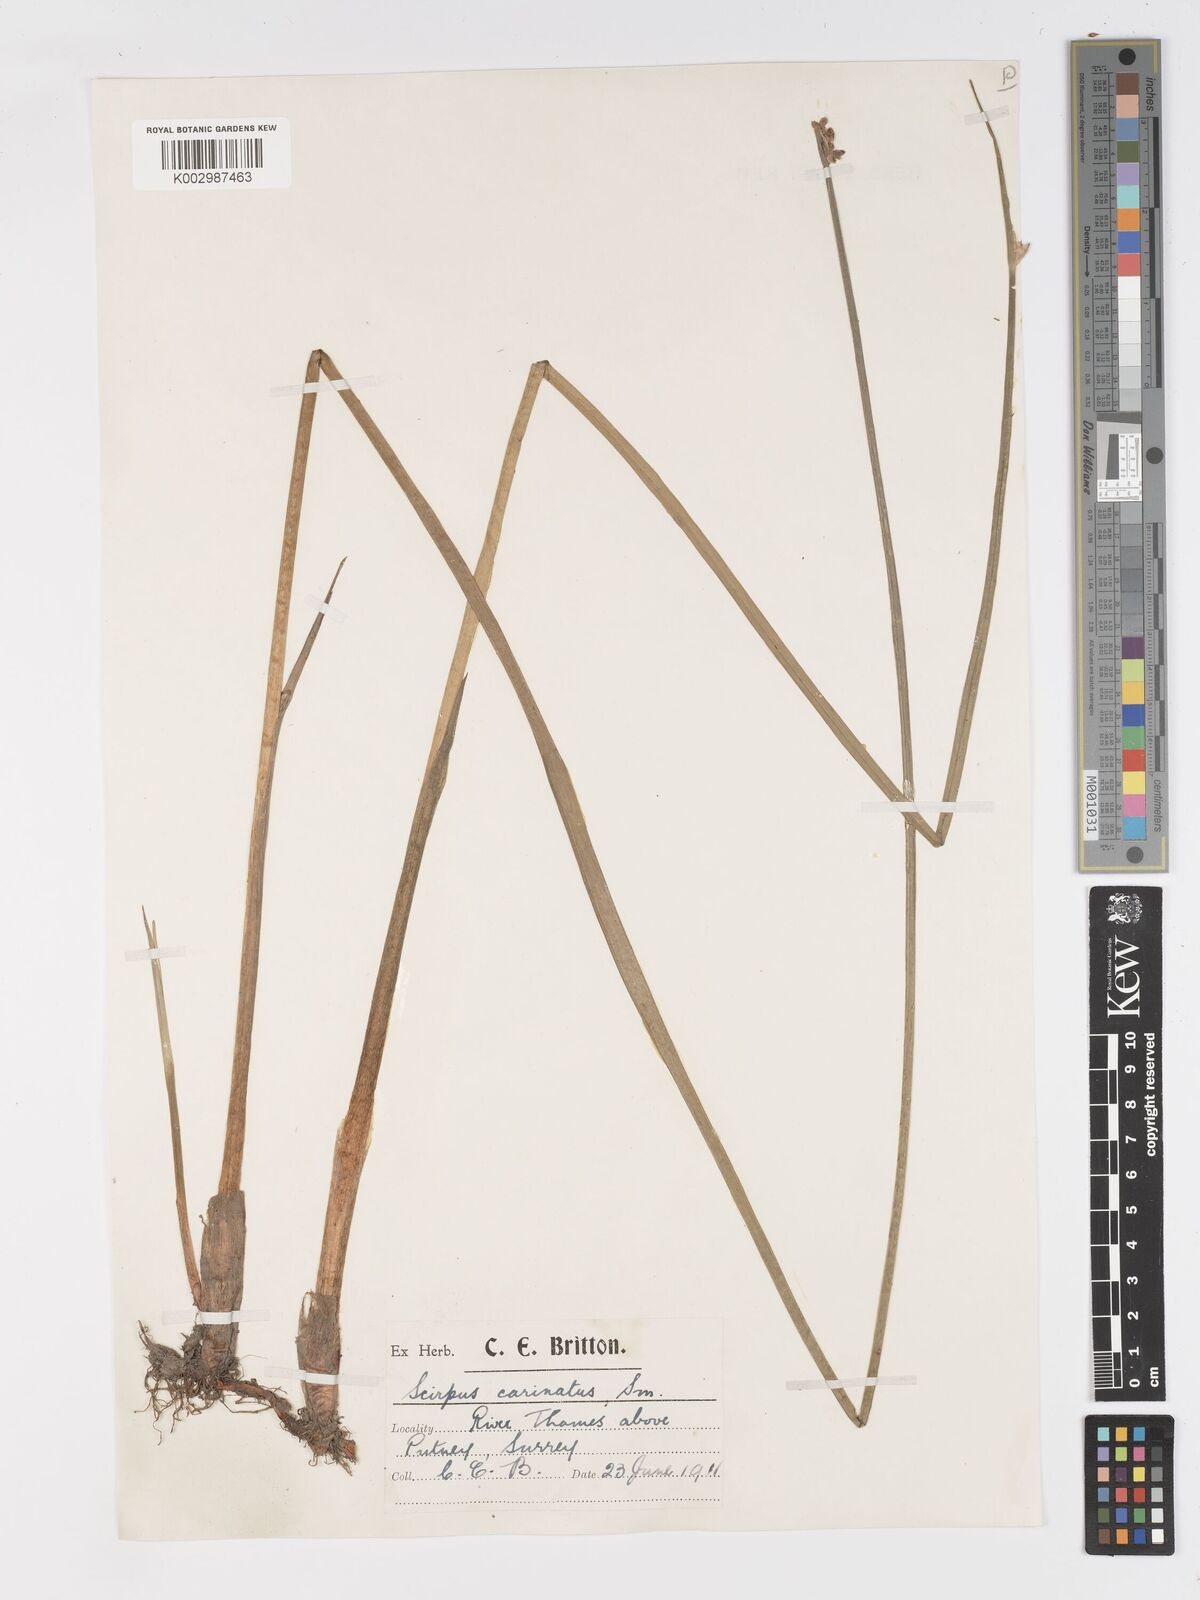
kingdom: Plantae
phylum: Tracheophyta
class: Liliopsida
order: Poales
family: Cyperaceae
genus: Schoenoplectus
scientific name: Schoenoplectus carinatus
